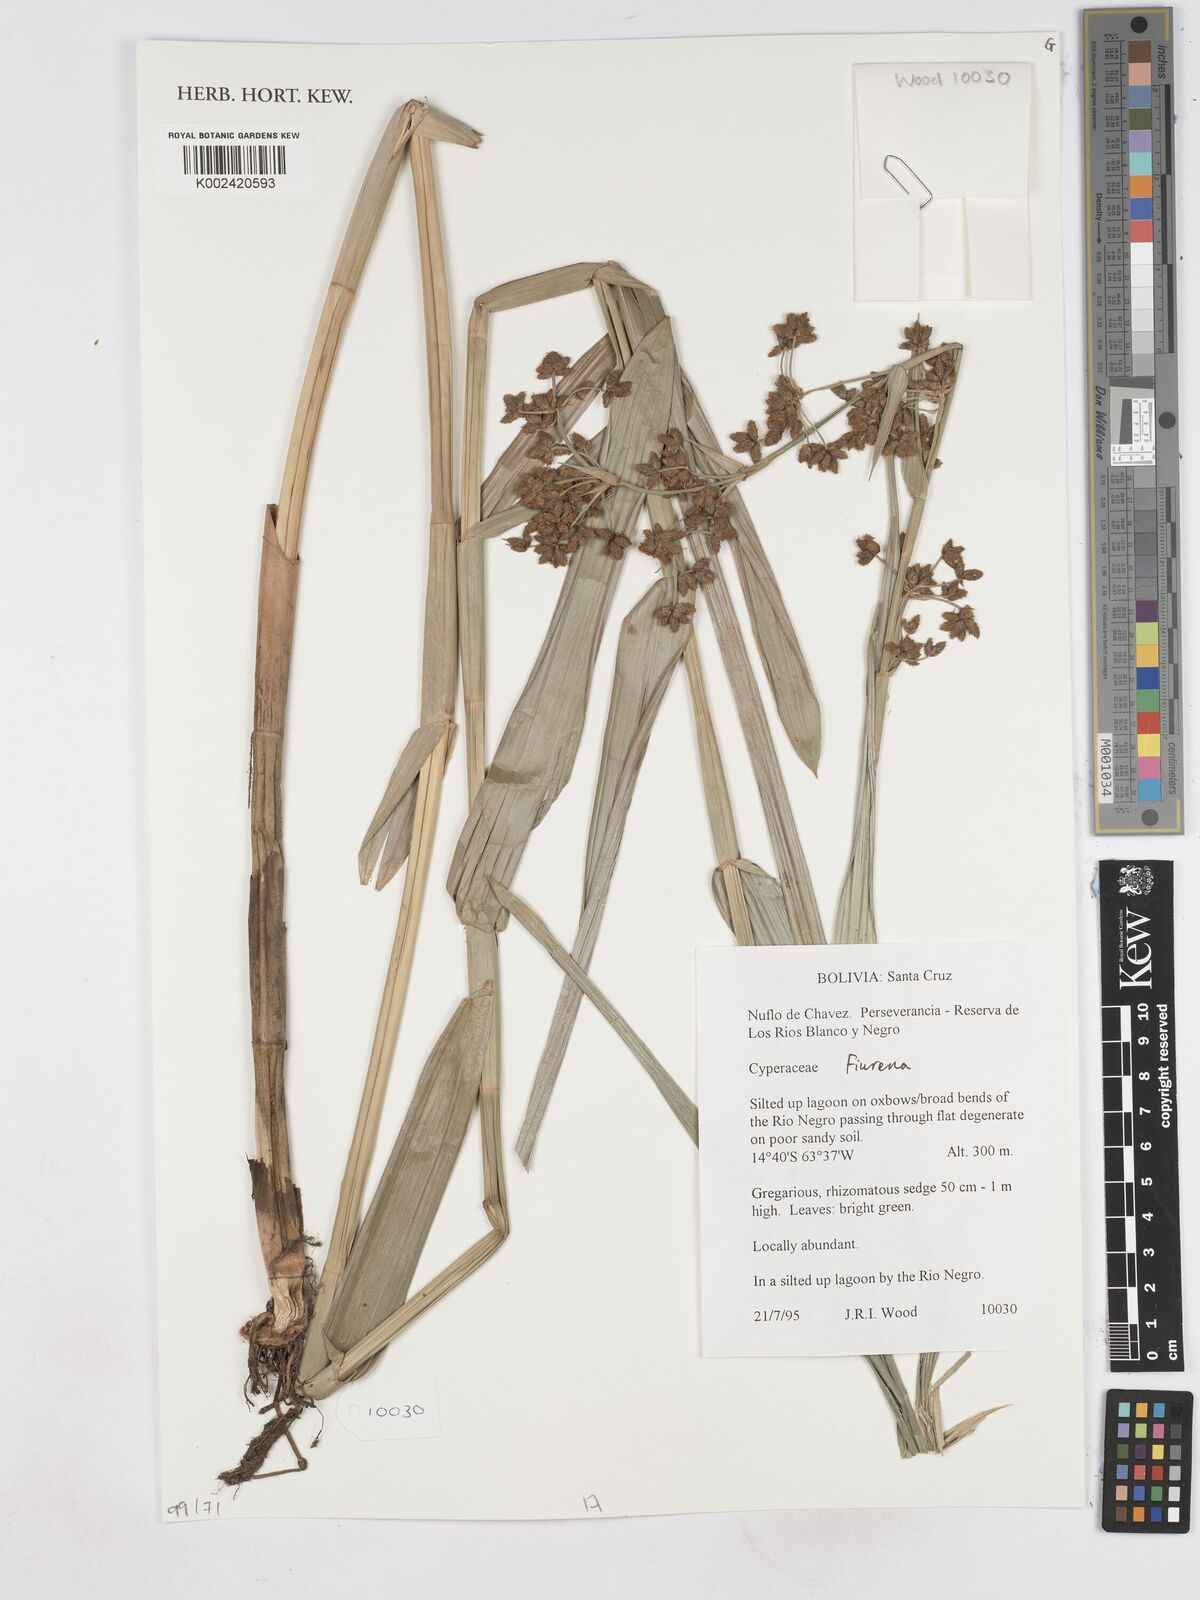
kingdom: Plantae
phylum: Tracheophyta
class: Liliopsida
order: Poales
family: Cyperaceae
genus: Fuirena
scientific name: Fuirena
